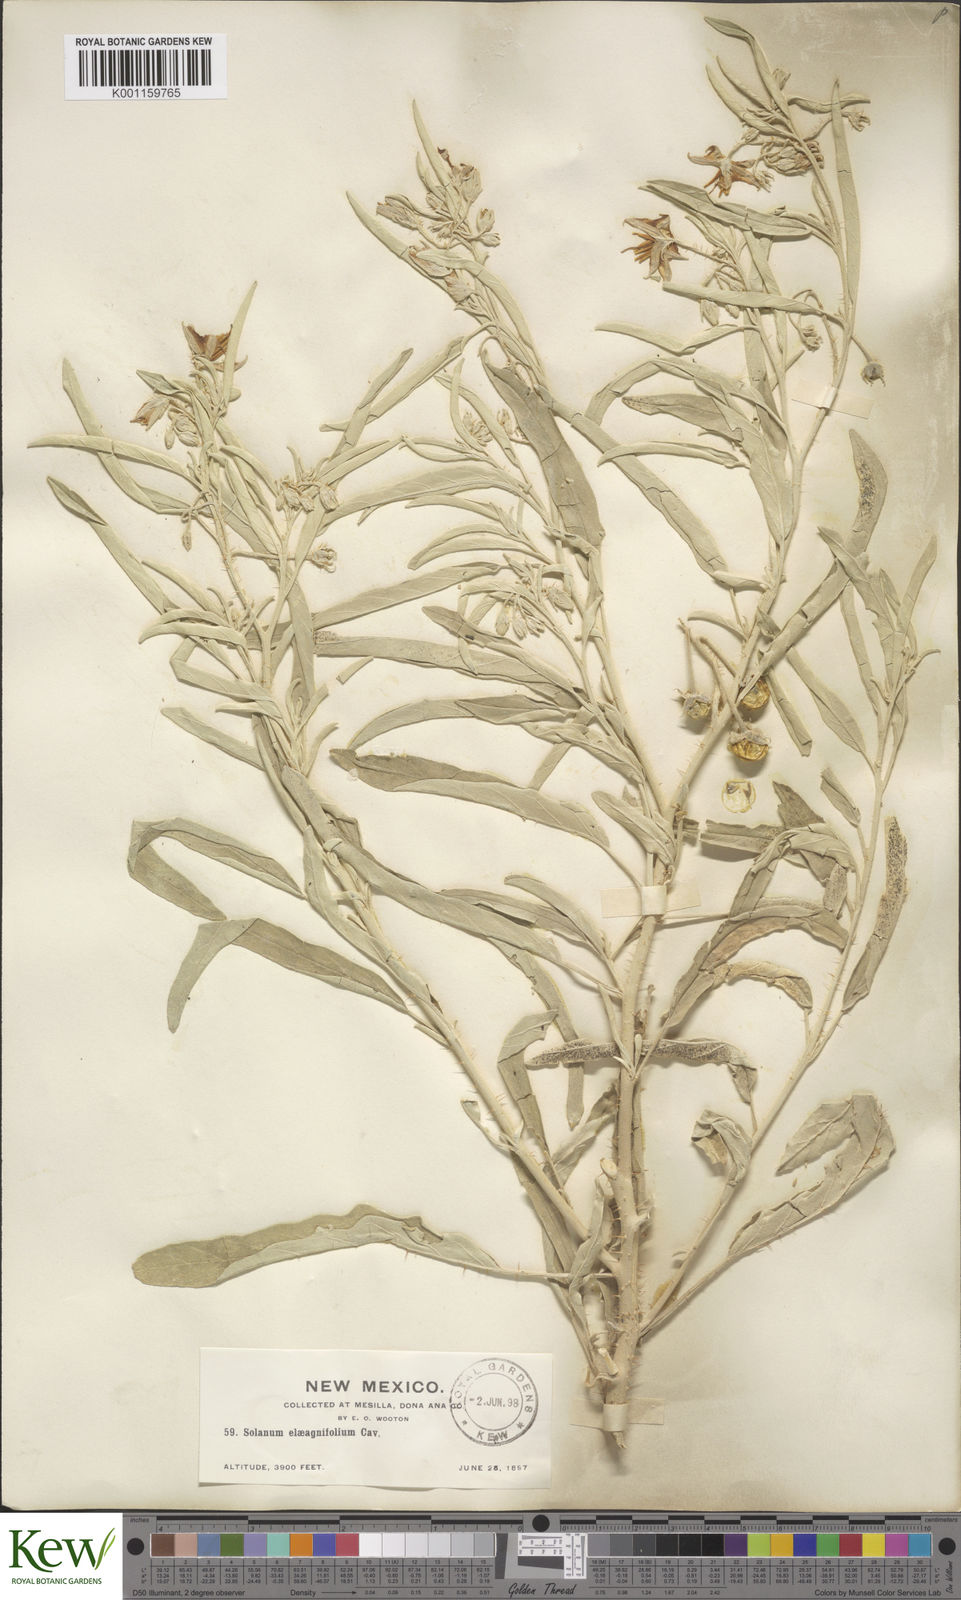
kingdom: Plantae
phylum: Tracheophyta
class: Magnoliopsida
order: Solanales
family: Solanaceae
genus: Solanum
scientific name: Solanum
